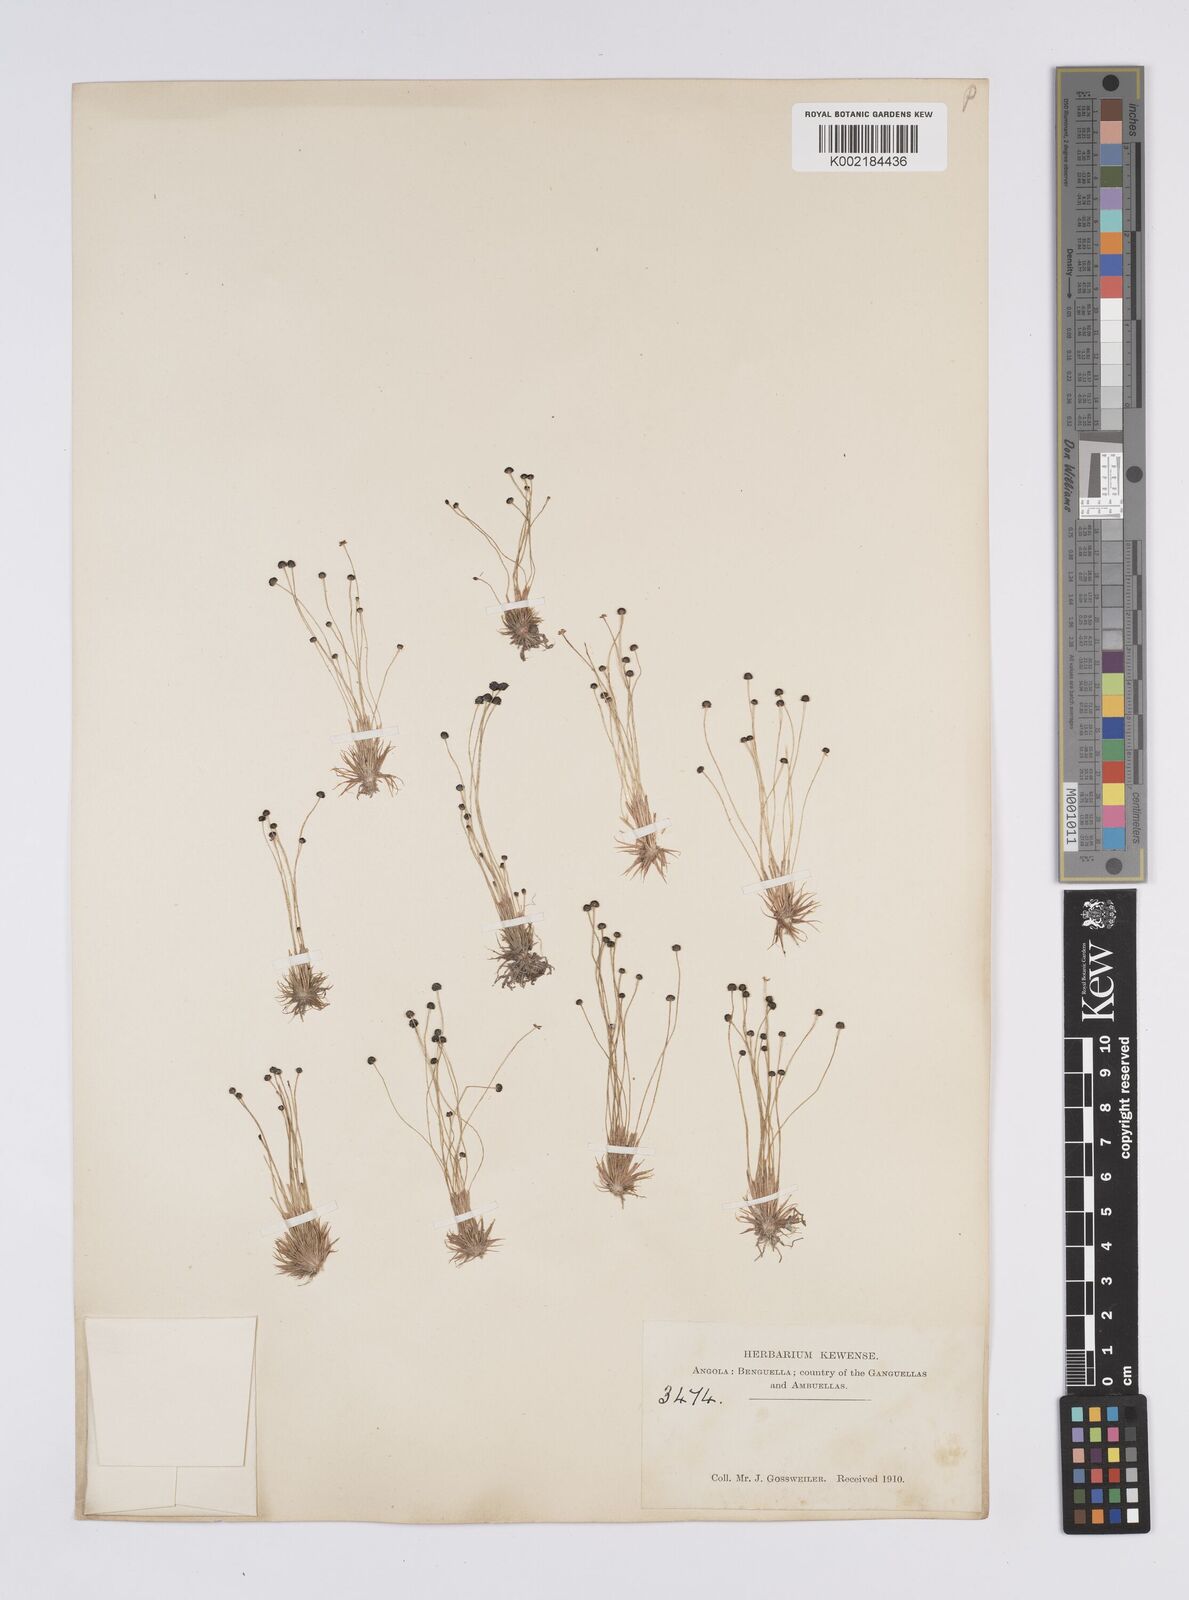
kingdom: Plantae
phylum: Tracheophyta
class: Liliopsida
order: Poales
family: Eriocaulaceae
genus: Eriocaulon
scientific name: Eriocaulon
